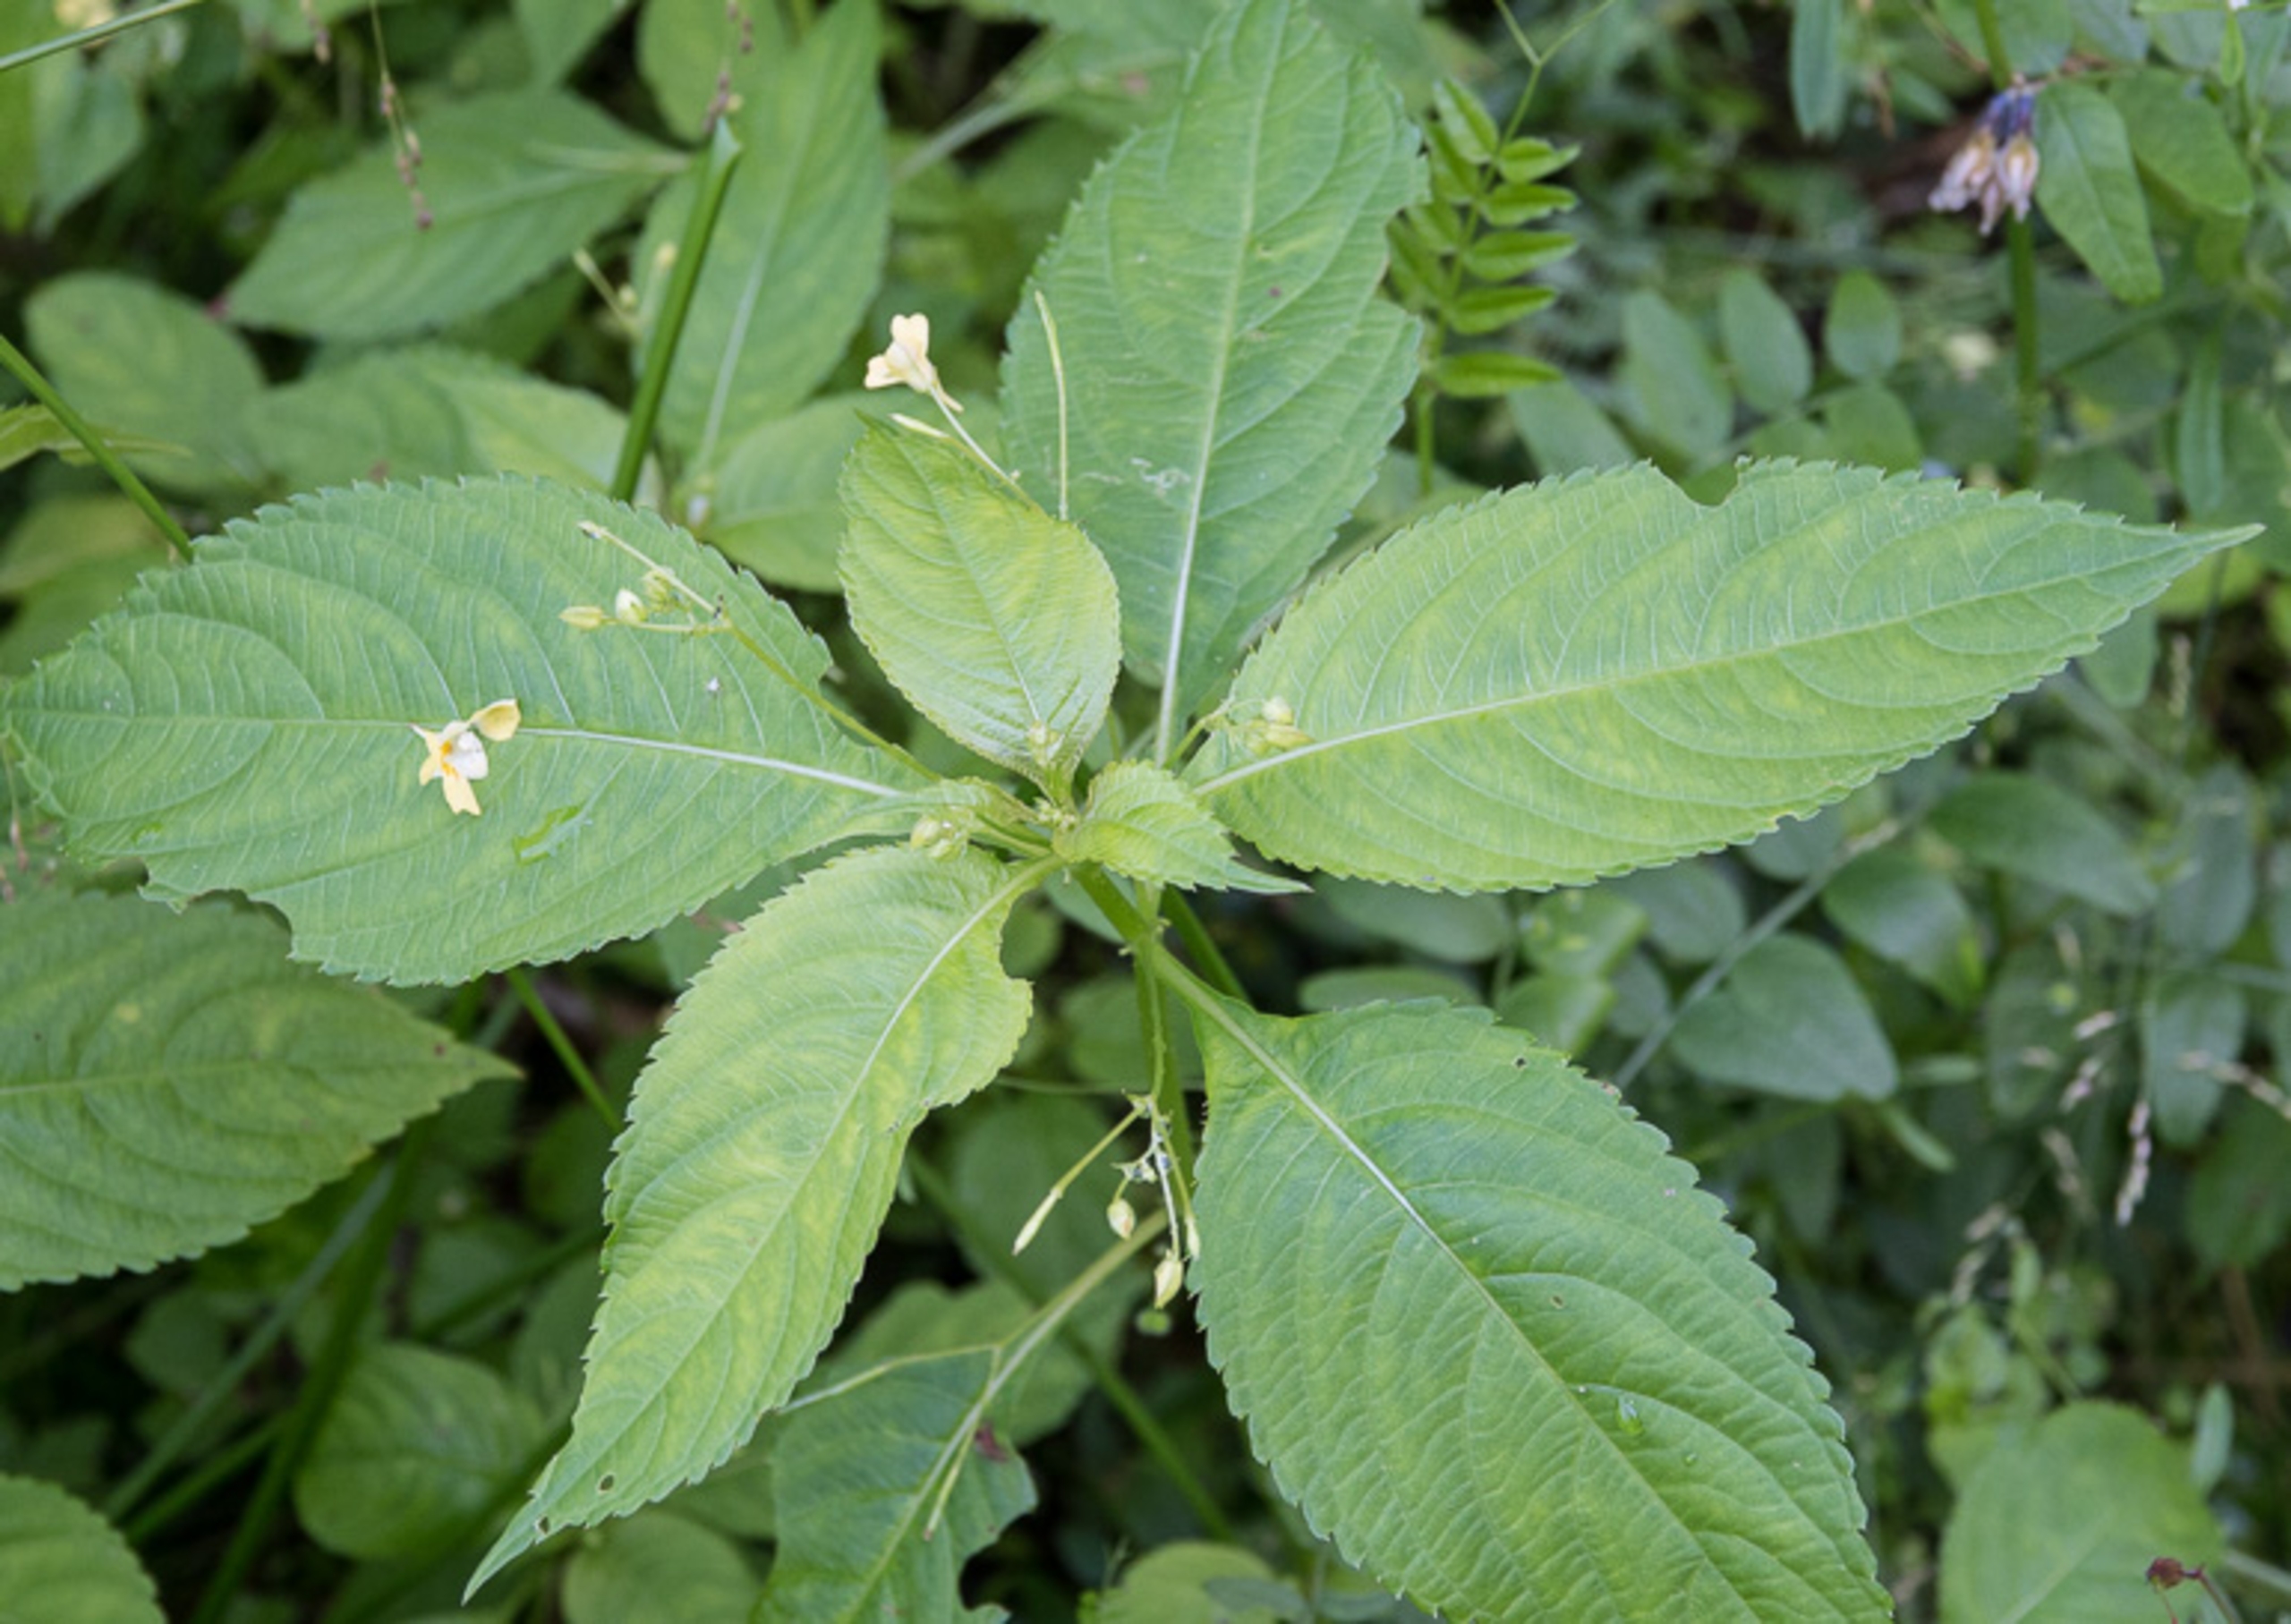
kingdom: Plantae
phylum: Tracheophyta
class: Magnoliopsida
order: Ericales
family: Balsaminaceae
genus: Impatiens
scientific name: Impatiens parviflora
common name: Småblomstret balsamin
